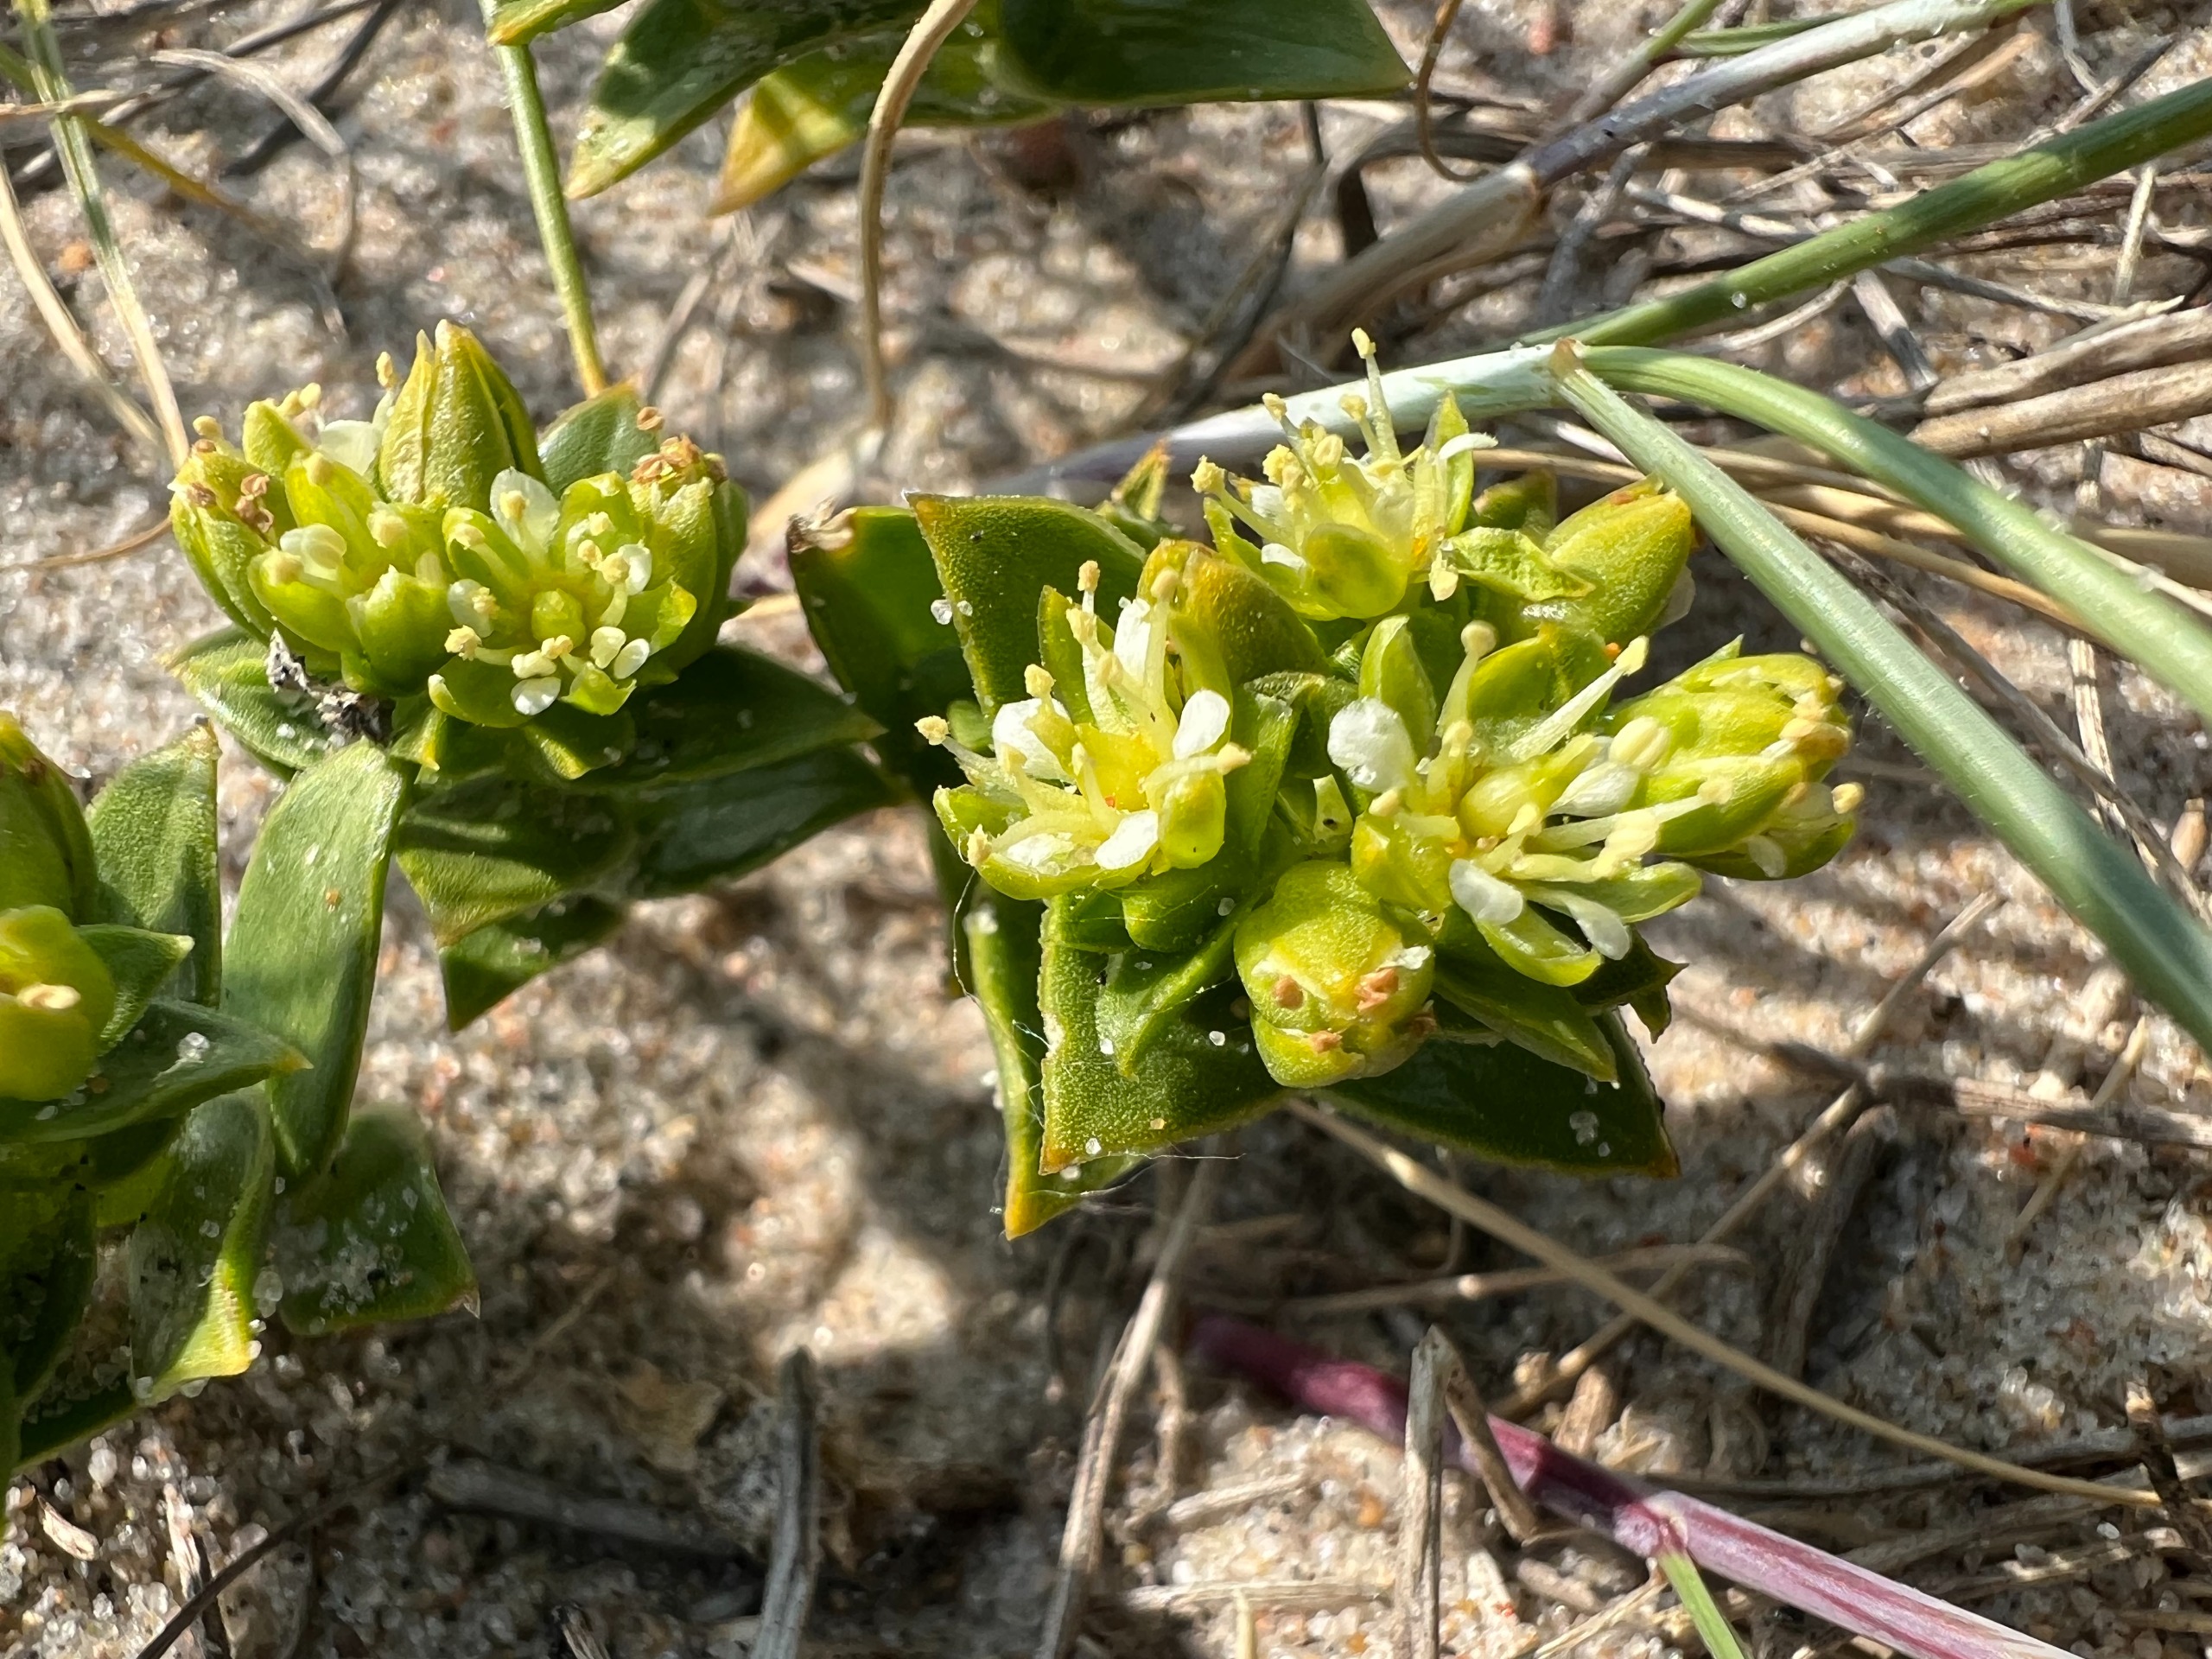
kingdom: Plantae
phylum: Tracheophyta
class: Magnoliopsida
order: Caryophyllales
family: Caryophyllaceae
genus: Honckenya
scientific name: Honckenya peploides
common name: Strandarve
